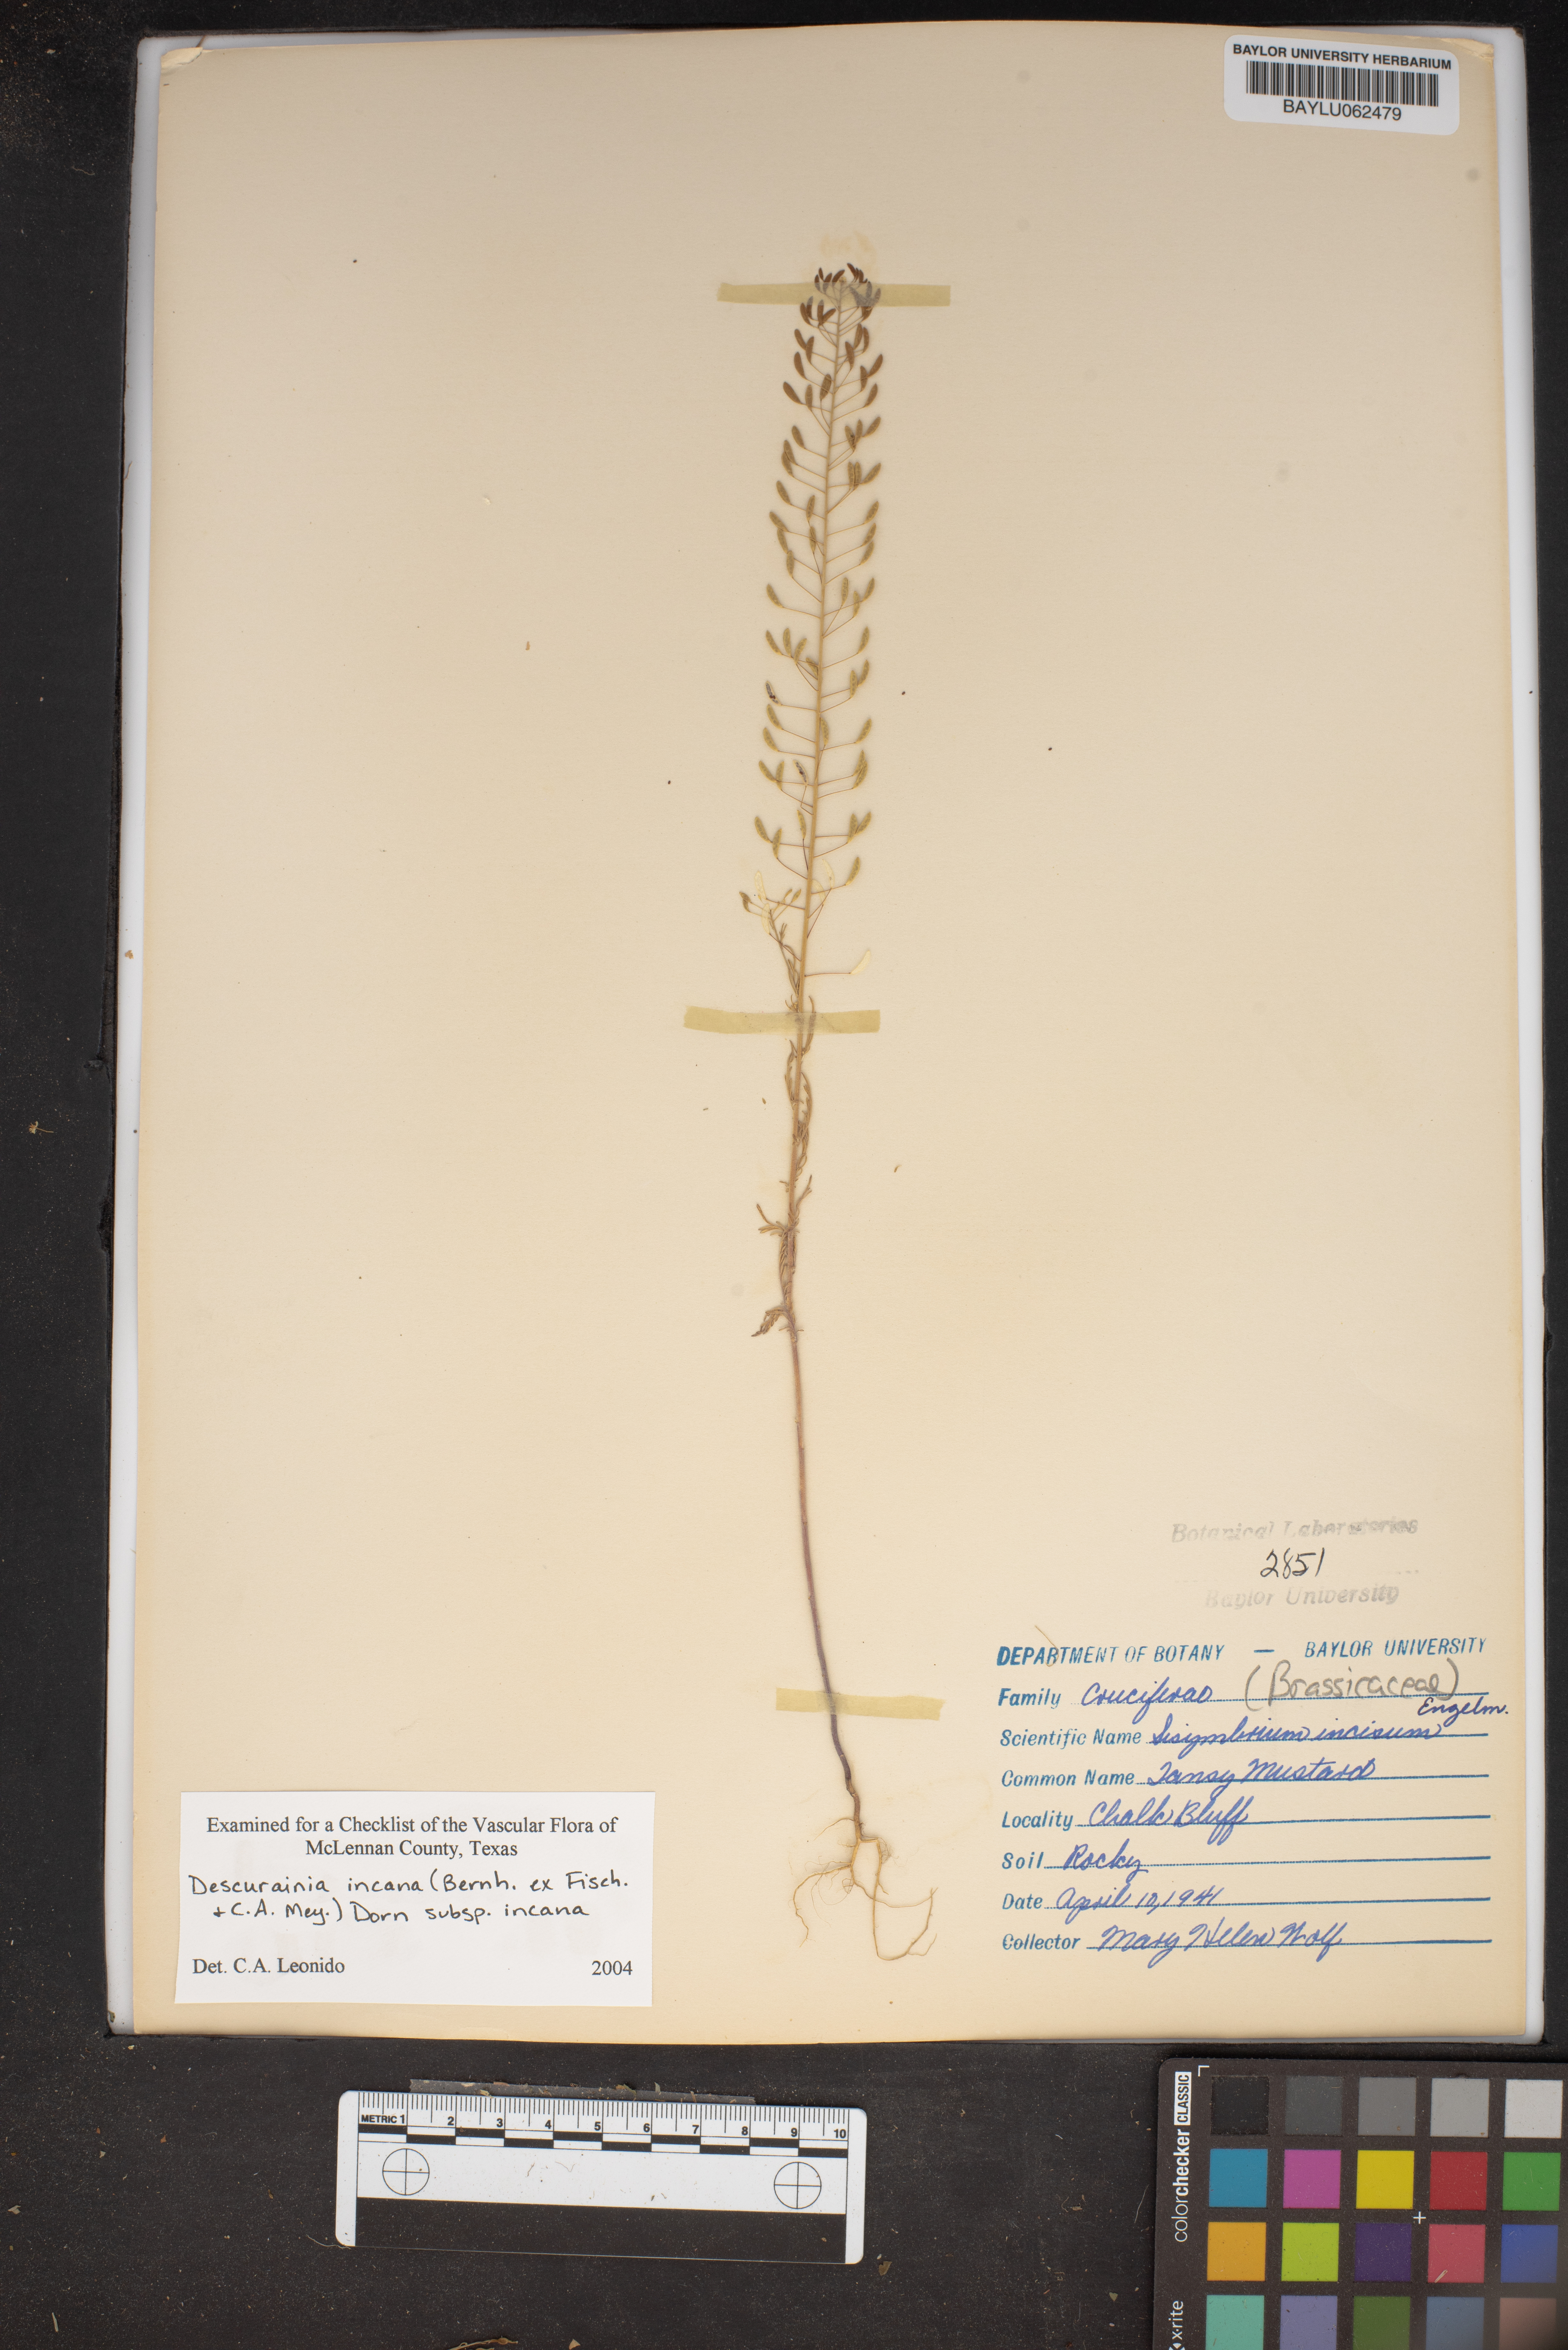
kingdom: Plantae
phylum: Tracheophyta
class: Magnoliopsida
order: Brassicales
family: Brassicaceae
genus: Descurainia
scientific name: Descurainia incana
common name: Gray tansy mustard
